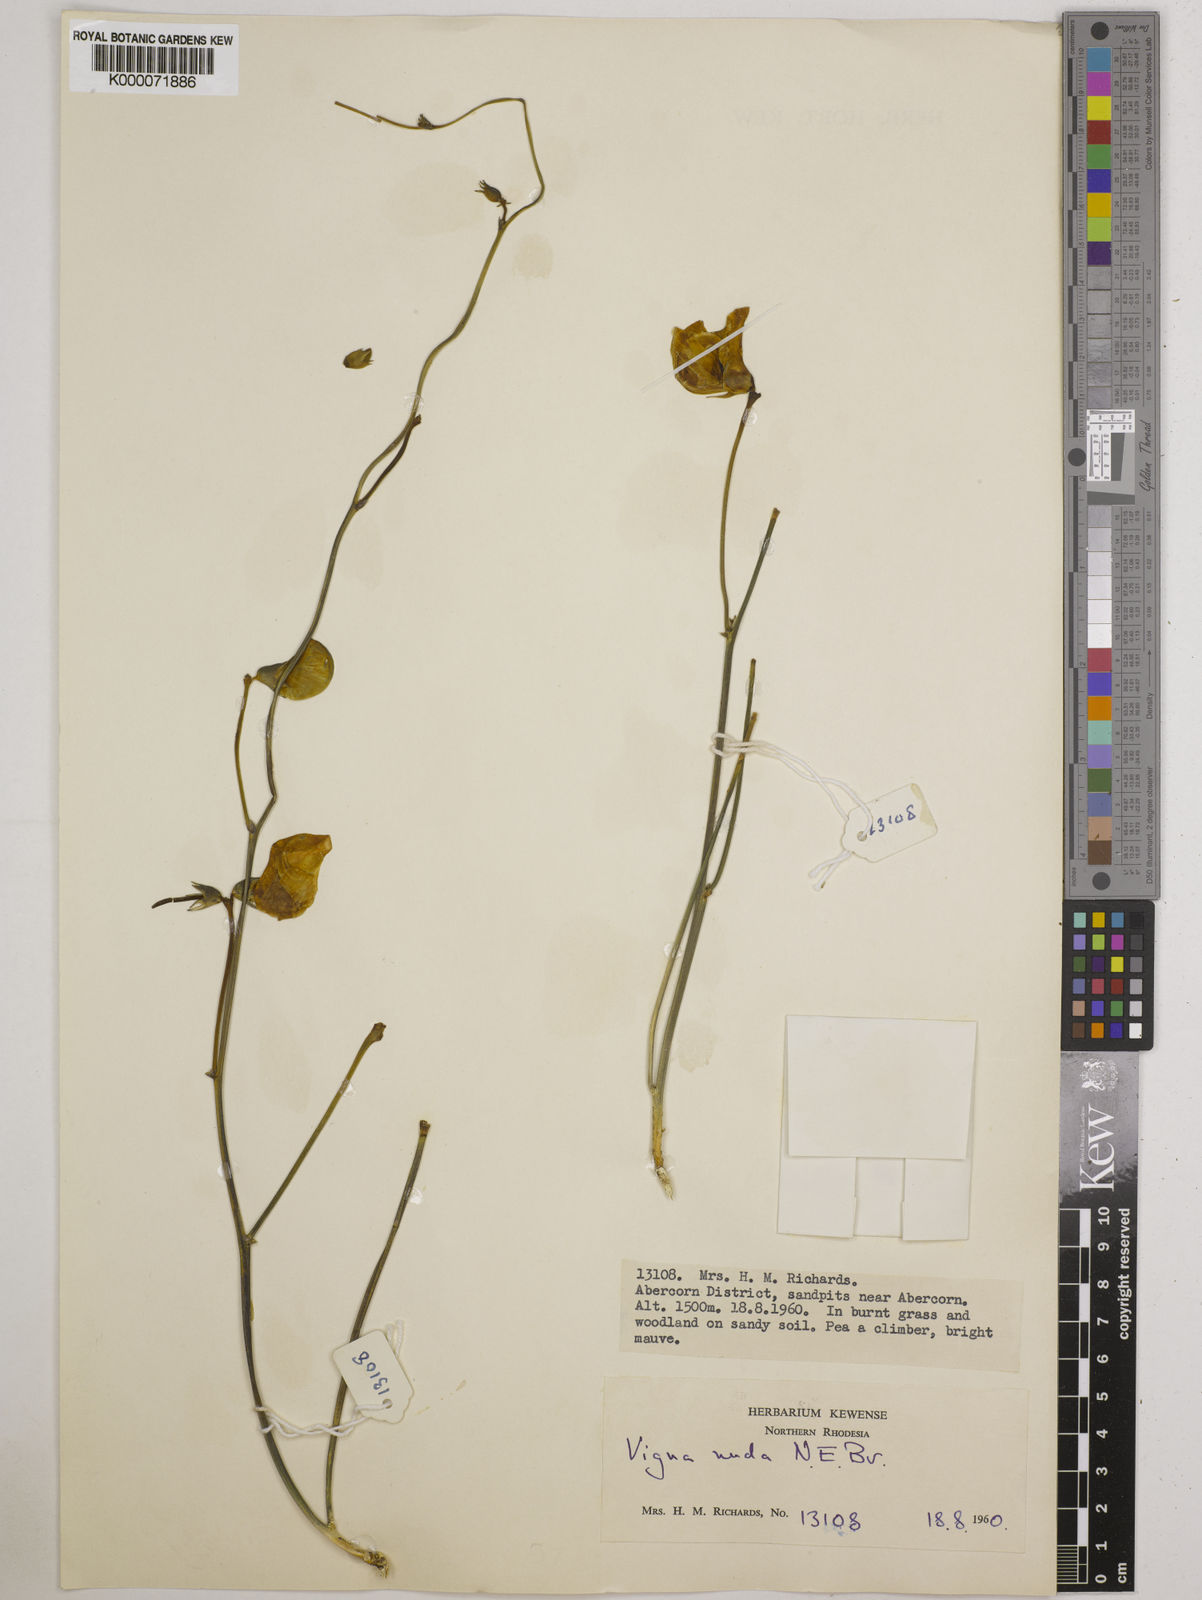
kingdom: Plantae
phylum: Tracheophyta
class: Magnoliopsida
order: Fabales
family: Fabaceae
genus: Vigna
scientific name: Vigna antunesii
